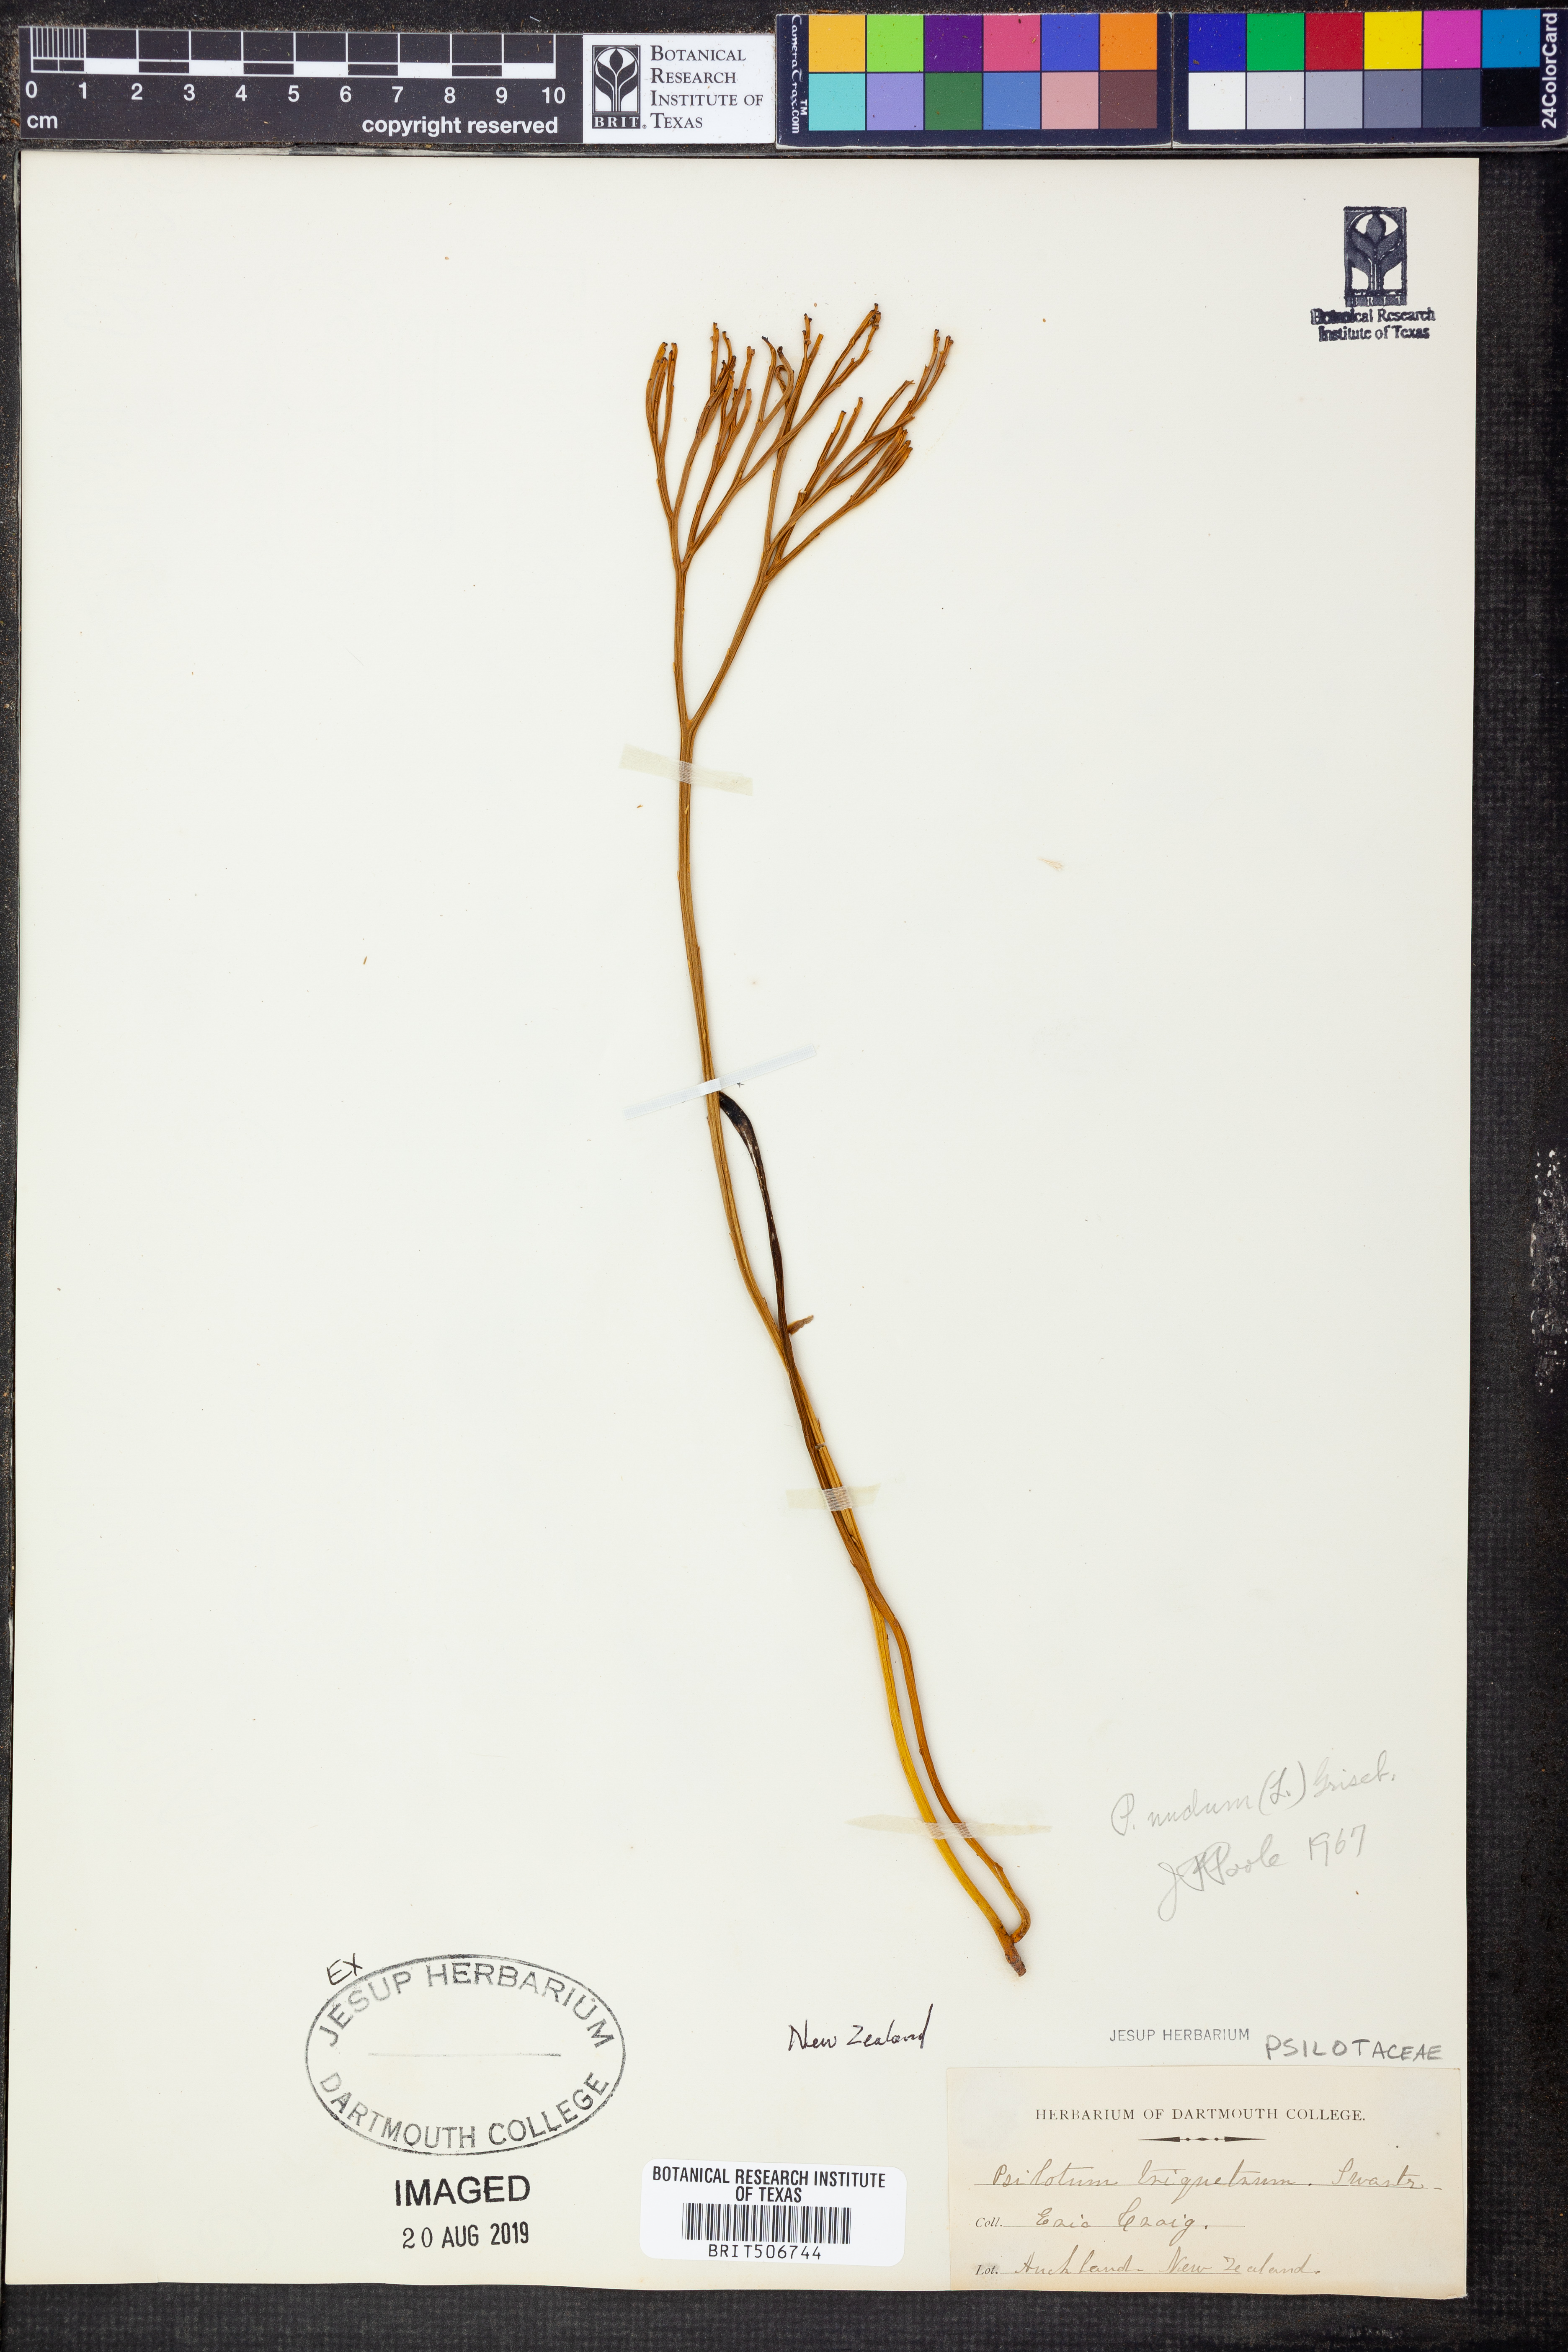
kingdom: Plantae
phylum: Tracheophyta
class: Polypodiopsida
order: Psilotales
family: Psilotaceae
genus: Psilotum
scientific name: Psilotum nudum
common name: Skeleton fork fern
